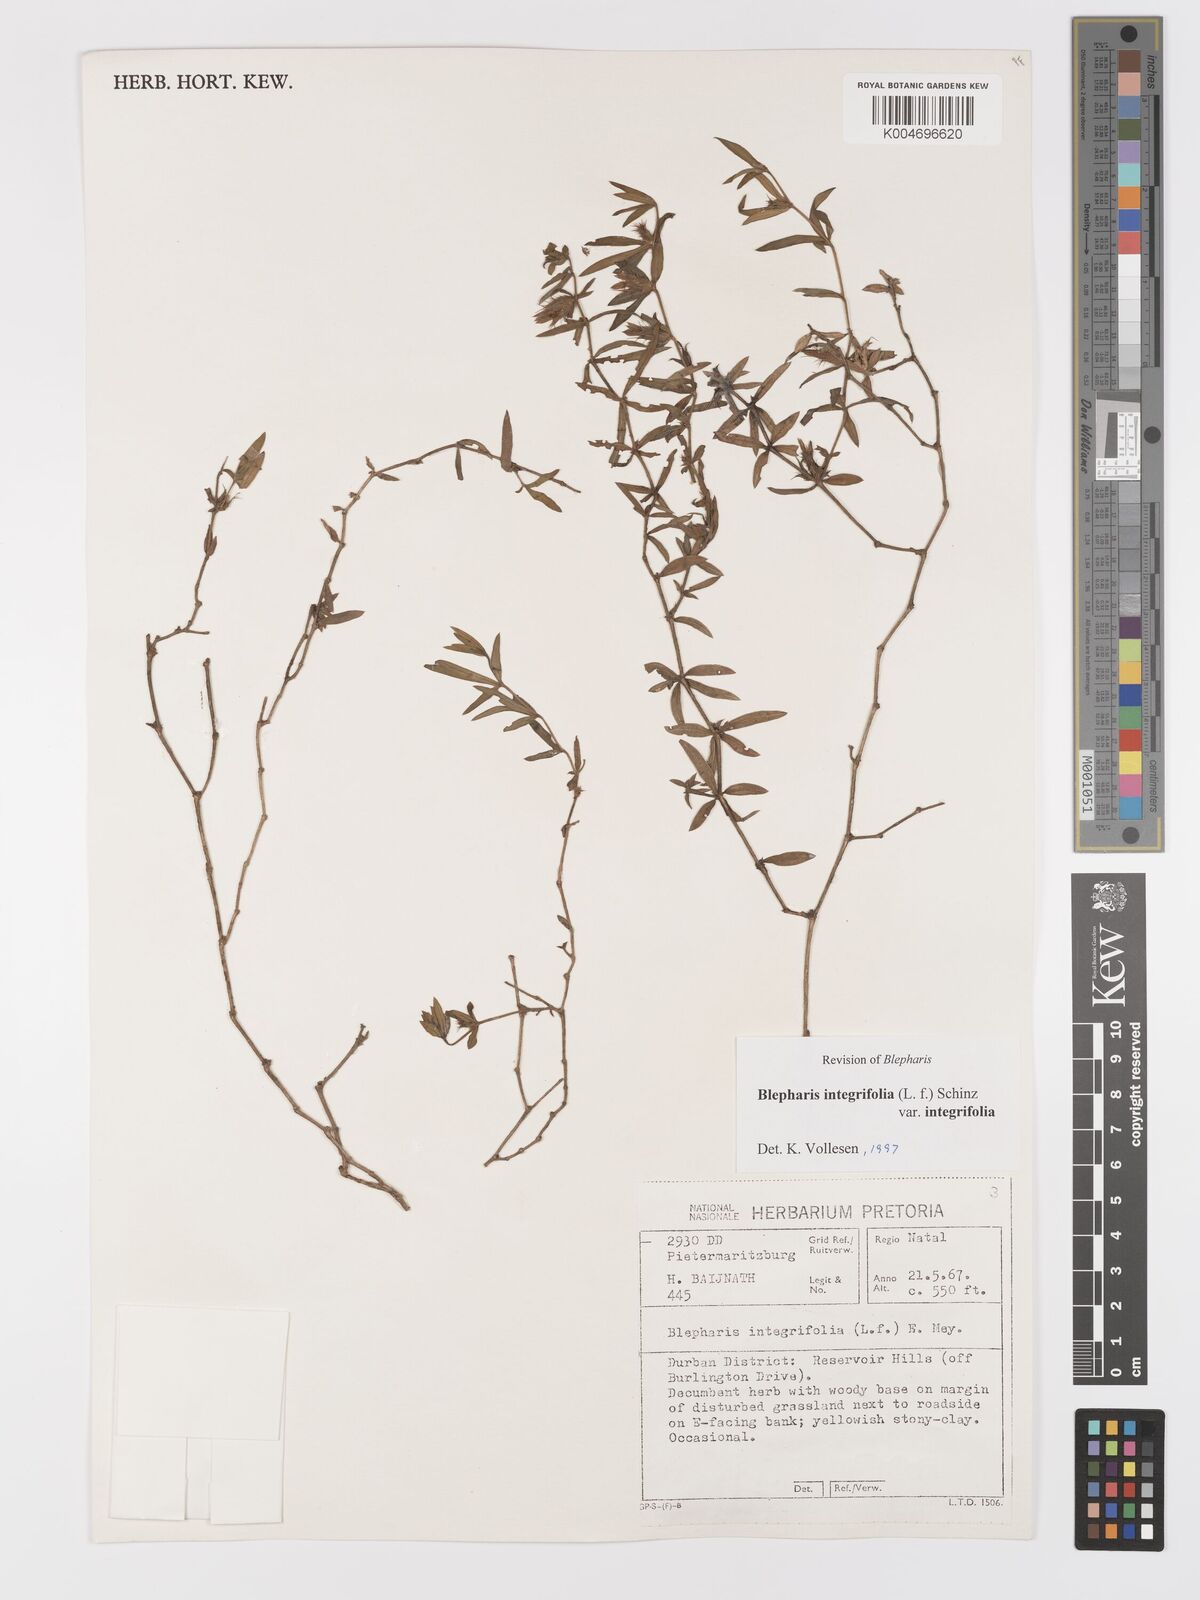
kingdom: Plantae
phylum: Tracheophyta
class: Magnoliopsida
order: Lamiales
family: Acanthaceae
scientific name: Acanthaceae
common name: Acanthaceae
